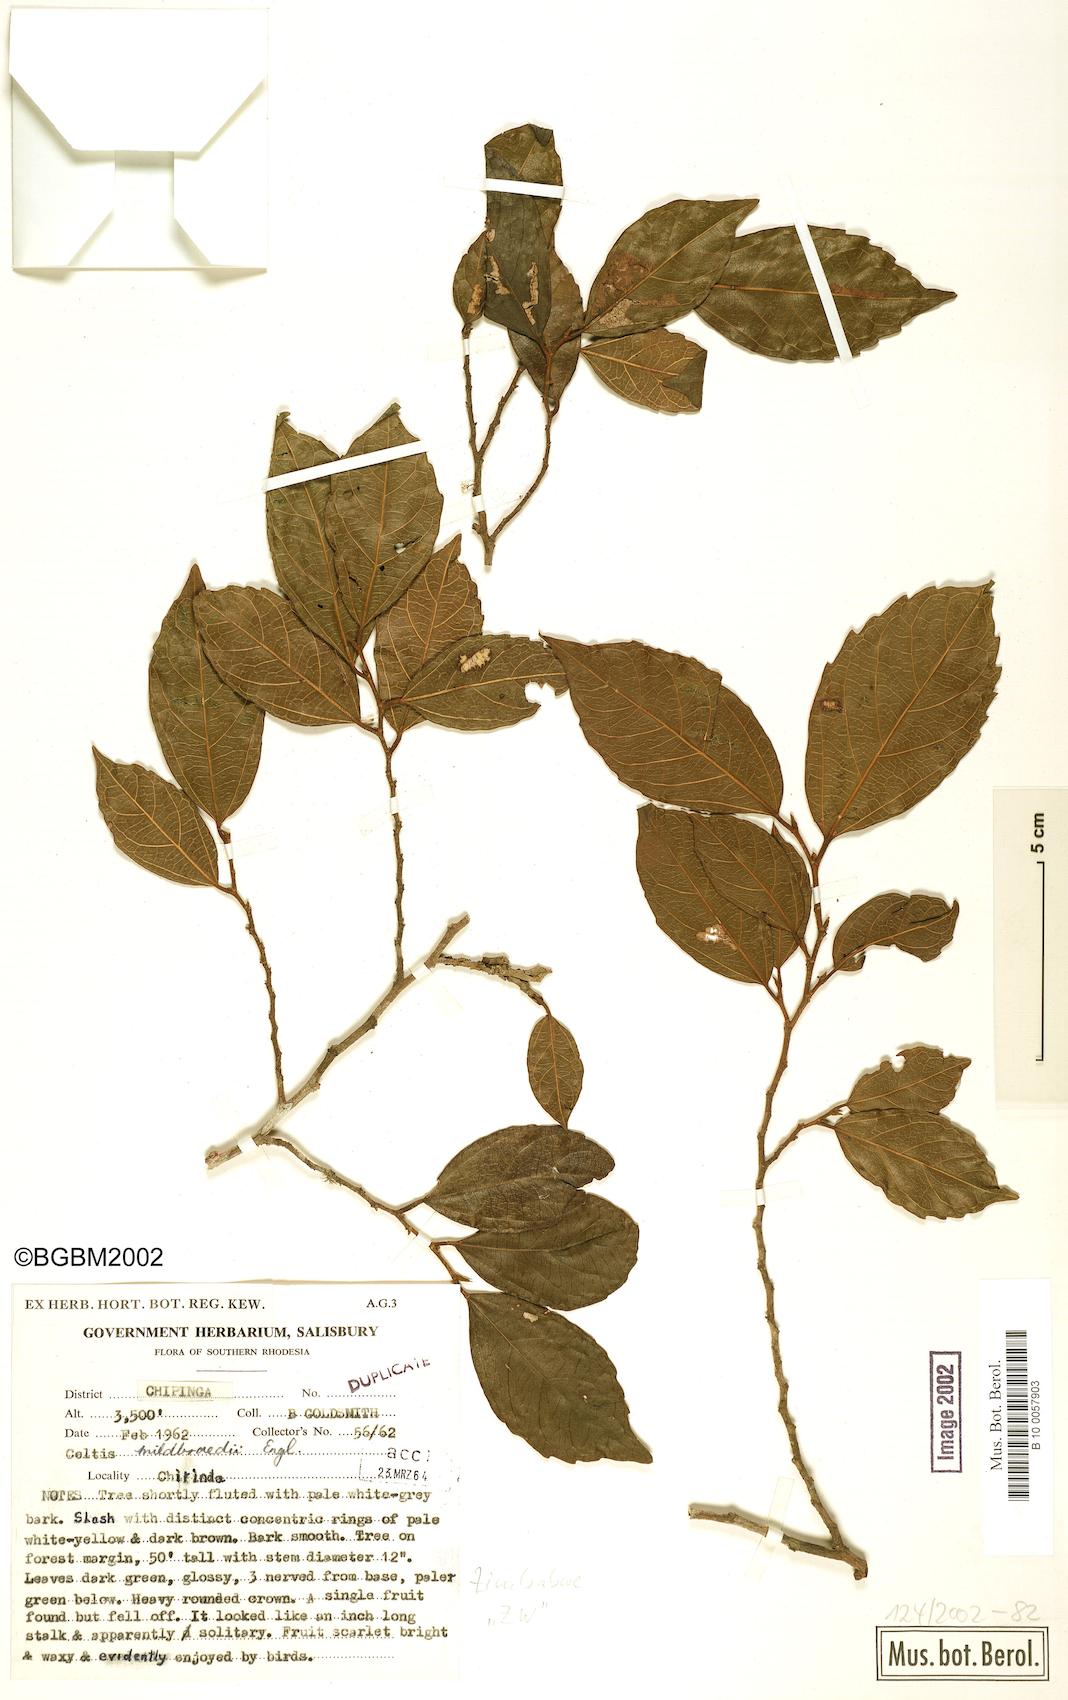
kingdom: Plantae
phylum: Tracheophyta
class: Magnoliopsida
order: Rosales
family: Cannabaceae
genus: Celtis
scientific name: Celtis mildbraedii
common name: Red-fruited stinkwood
